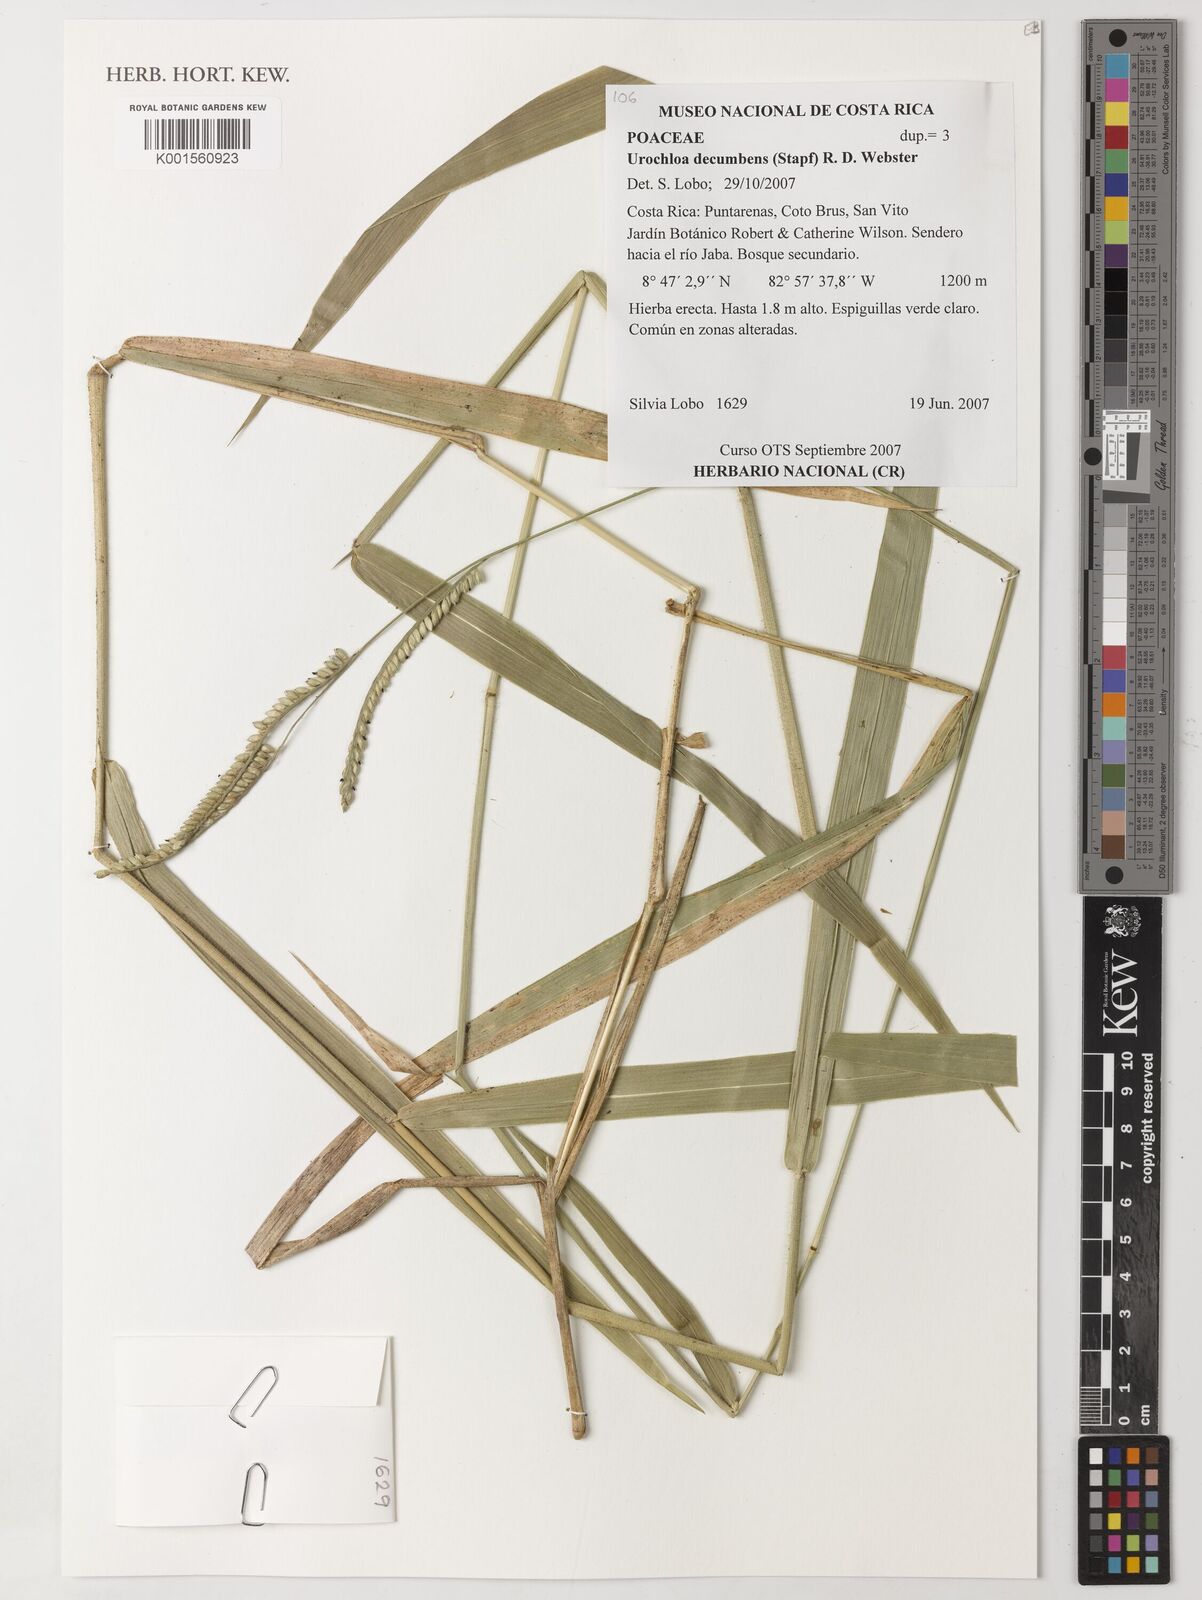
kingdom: Plantae
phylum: Tracheophyta
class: Liliopsida
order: Poales
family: Poaceae
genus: Urochloa
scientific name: Urochloa eminii
